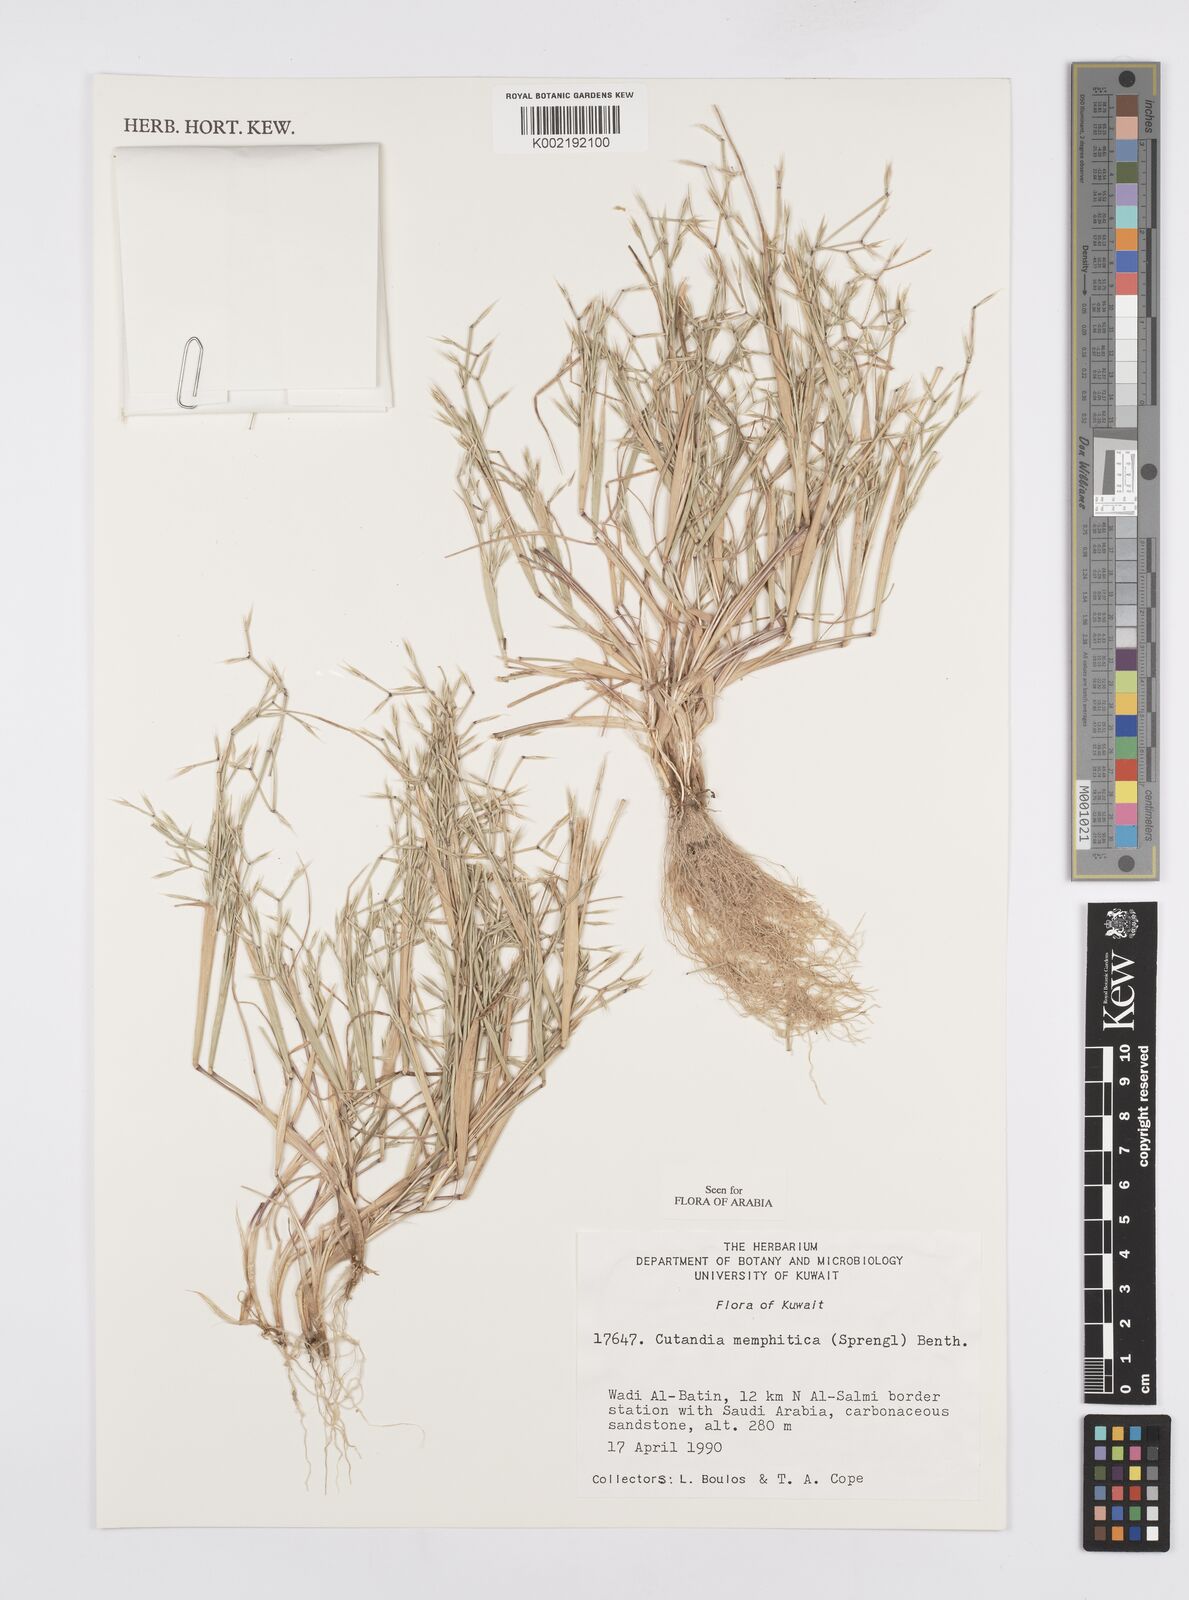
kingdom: Plantae
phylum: Tracheophyta
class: Liliopsida
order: Poales
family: Poaceae
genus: Cutandia
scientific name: Cutandia memphitica
